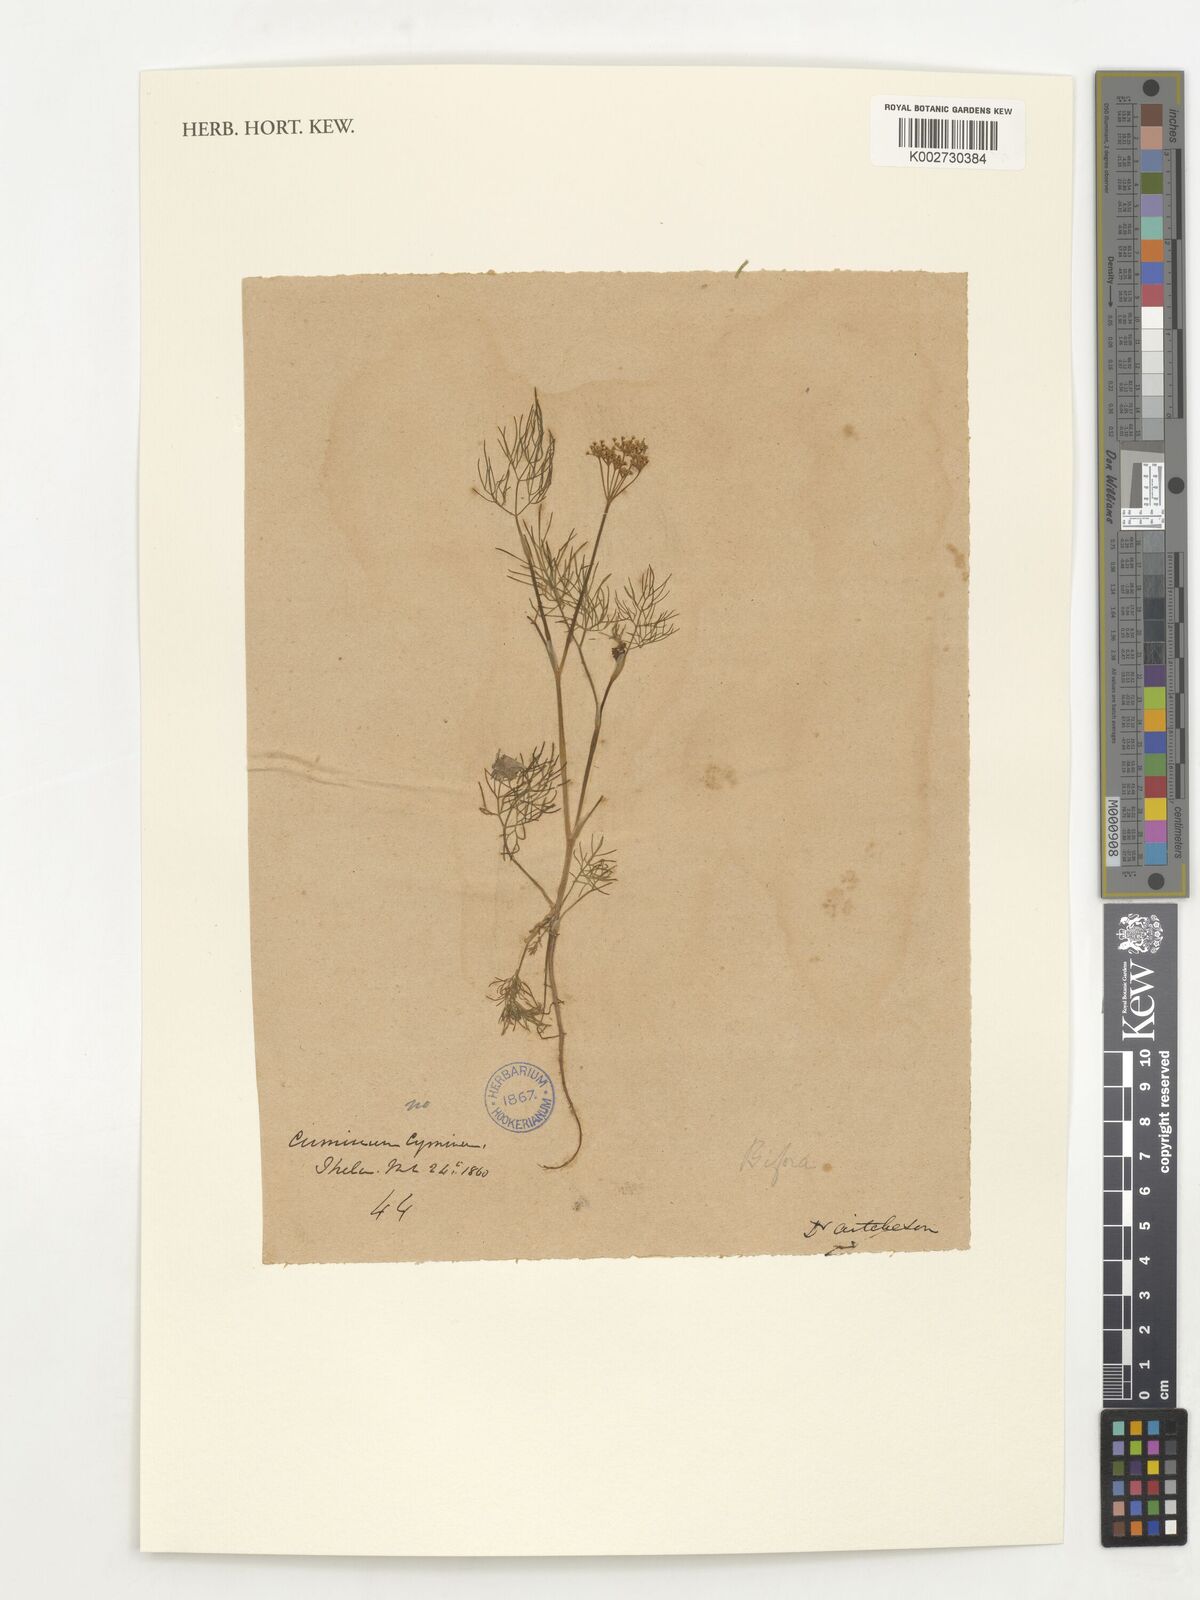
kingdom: Plantae
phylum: Tracheophyta
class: Magnoliopsida
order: Apiales
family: Apiaceae
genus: Bifora
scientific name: Bifora
